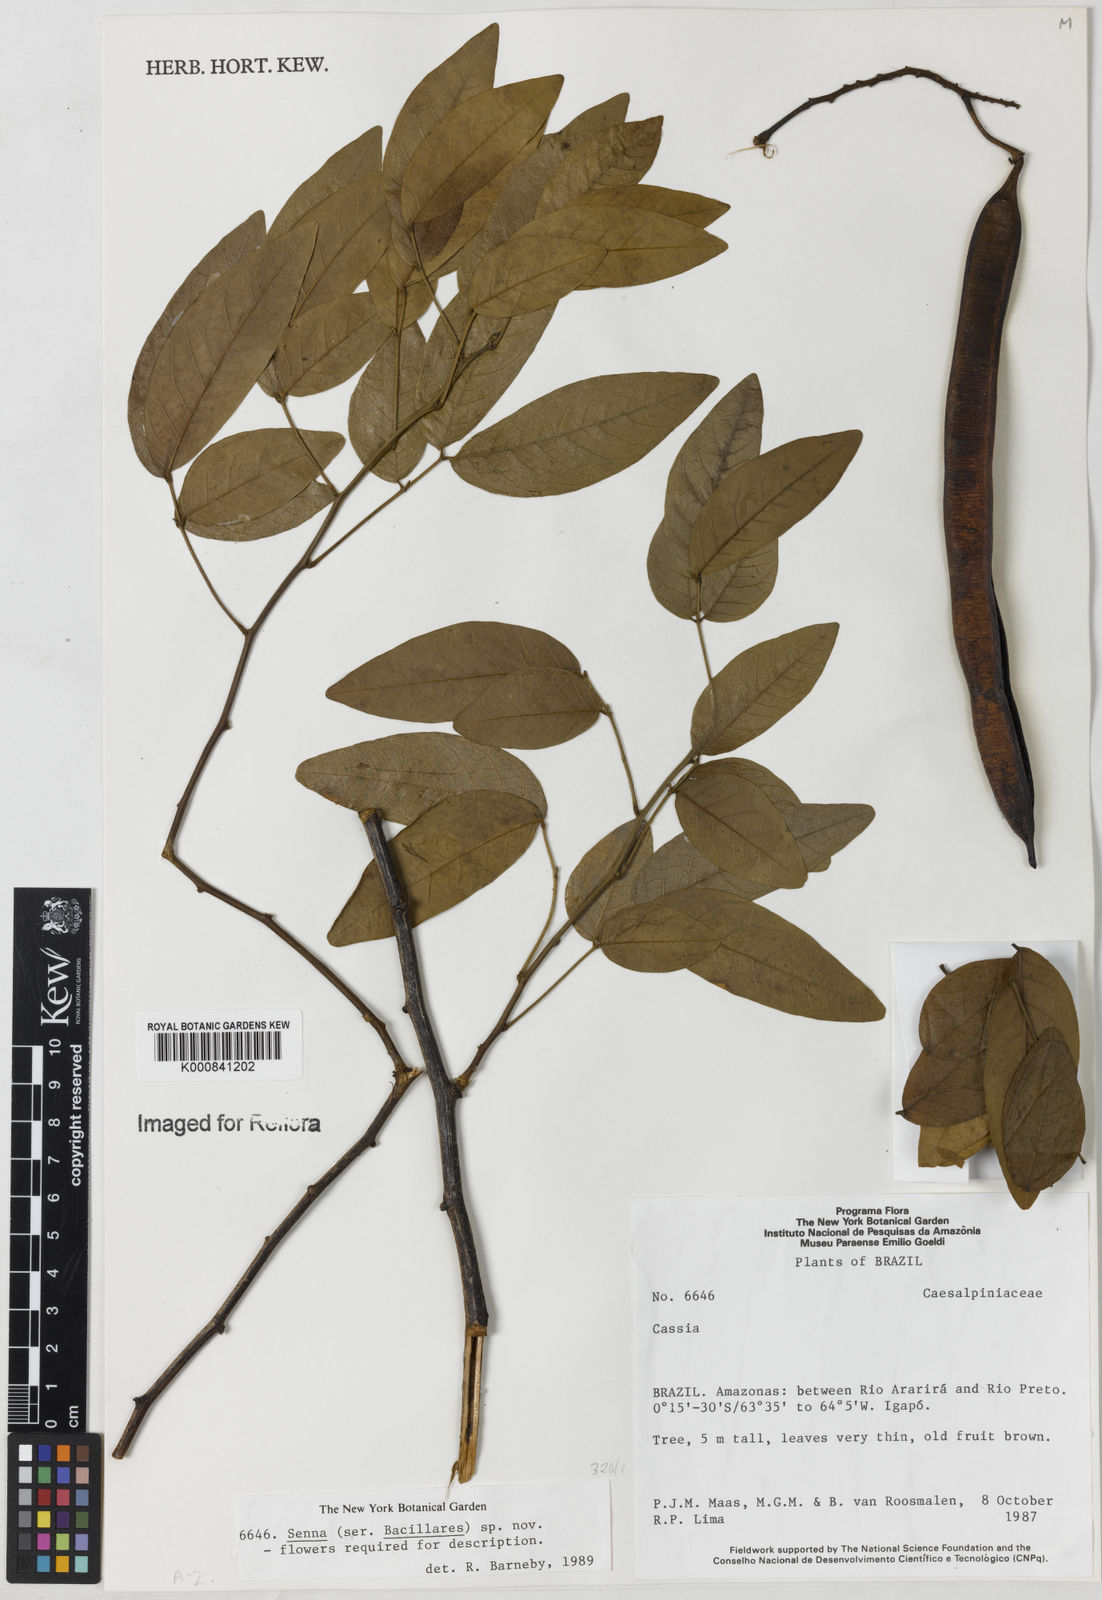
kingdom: Plantae
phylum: Tracheophyta
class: Magnoliopsida
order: Fabales
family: Fabaceae
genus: Senna
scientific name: Senna
